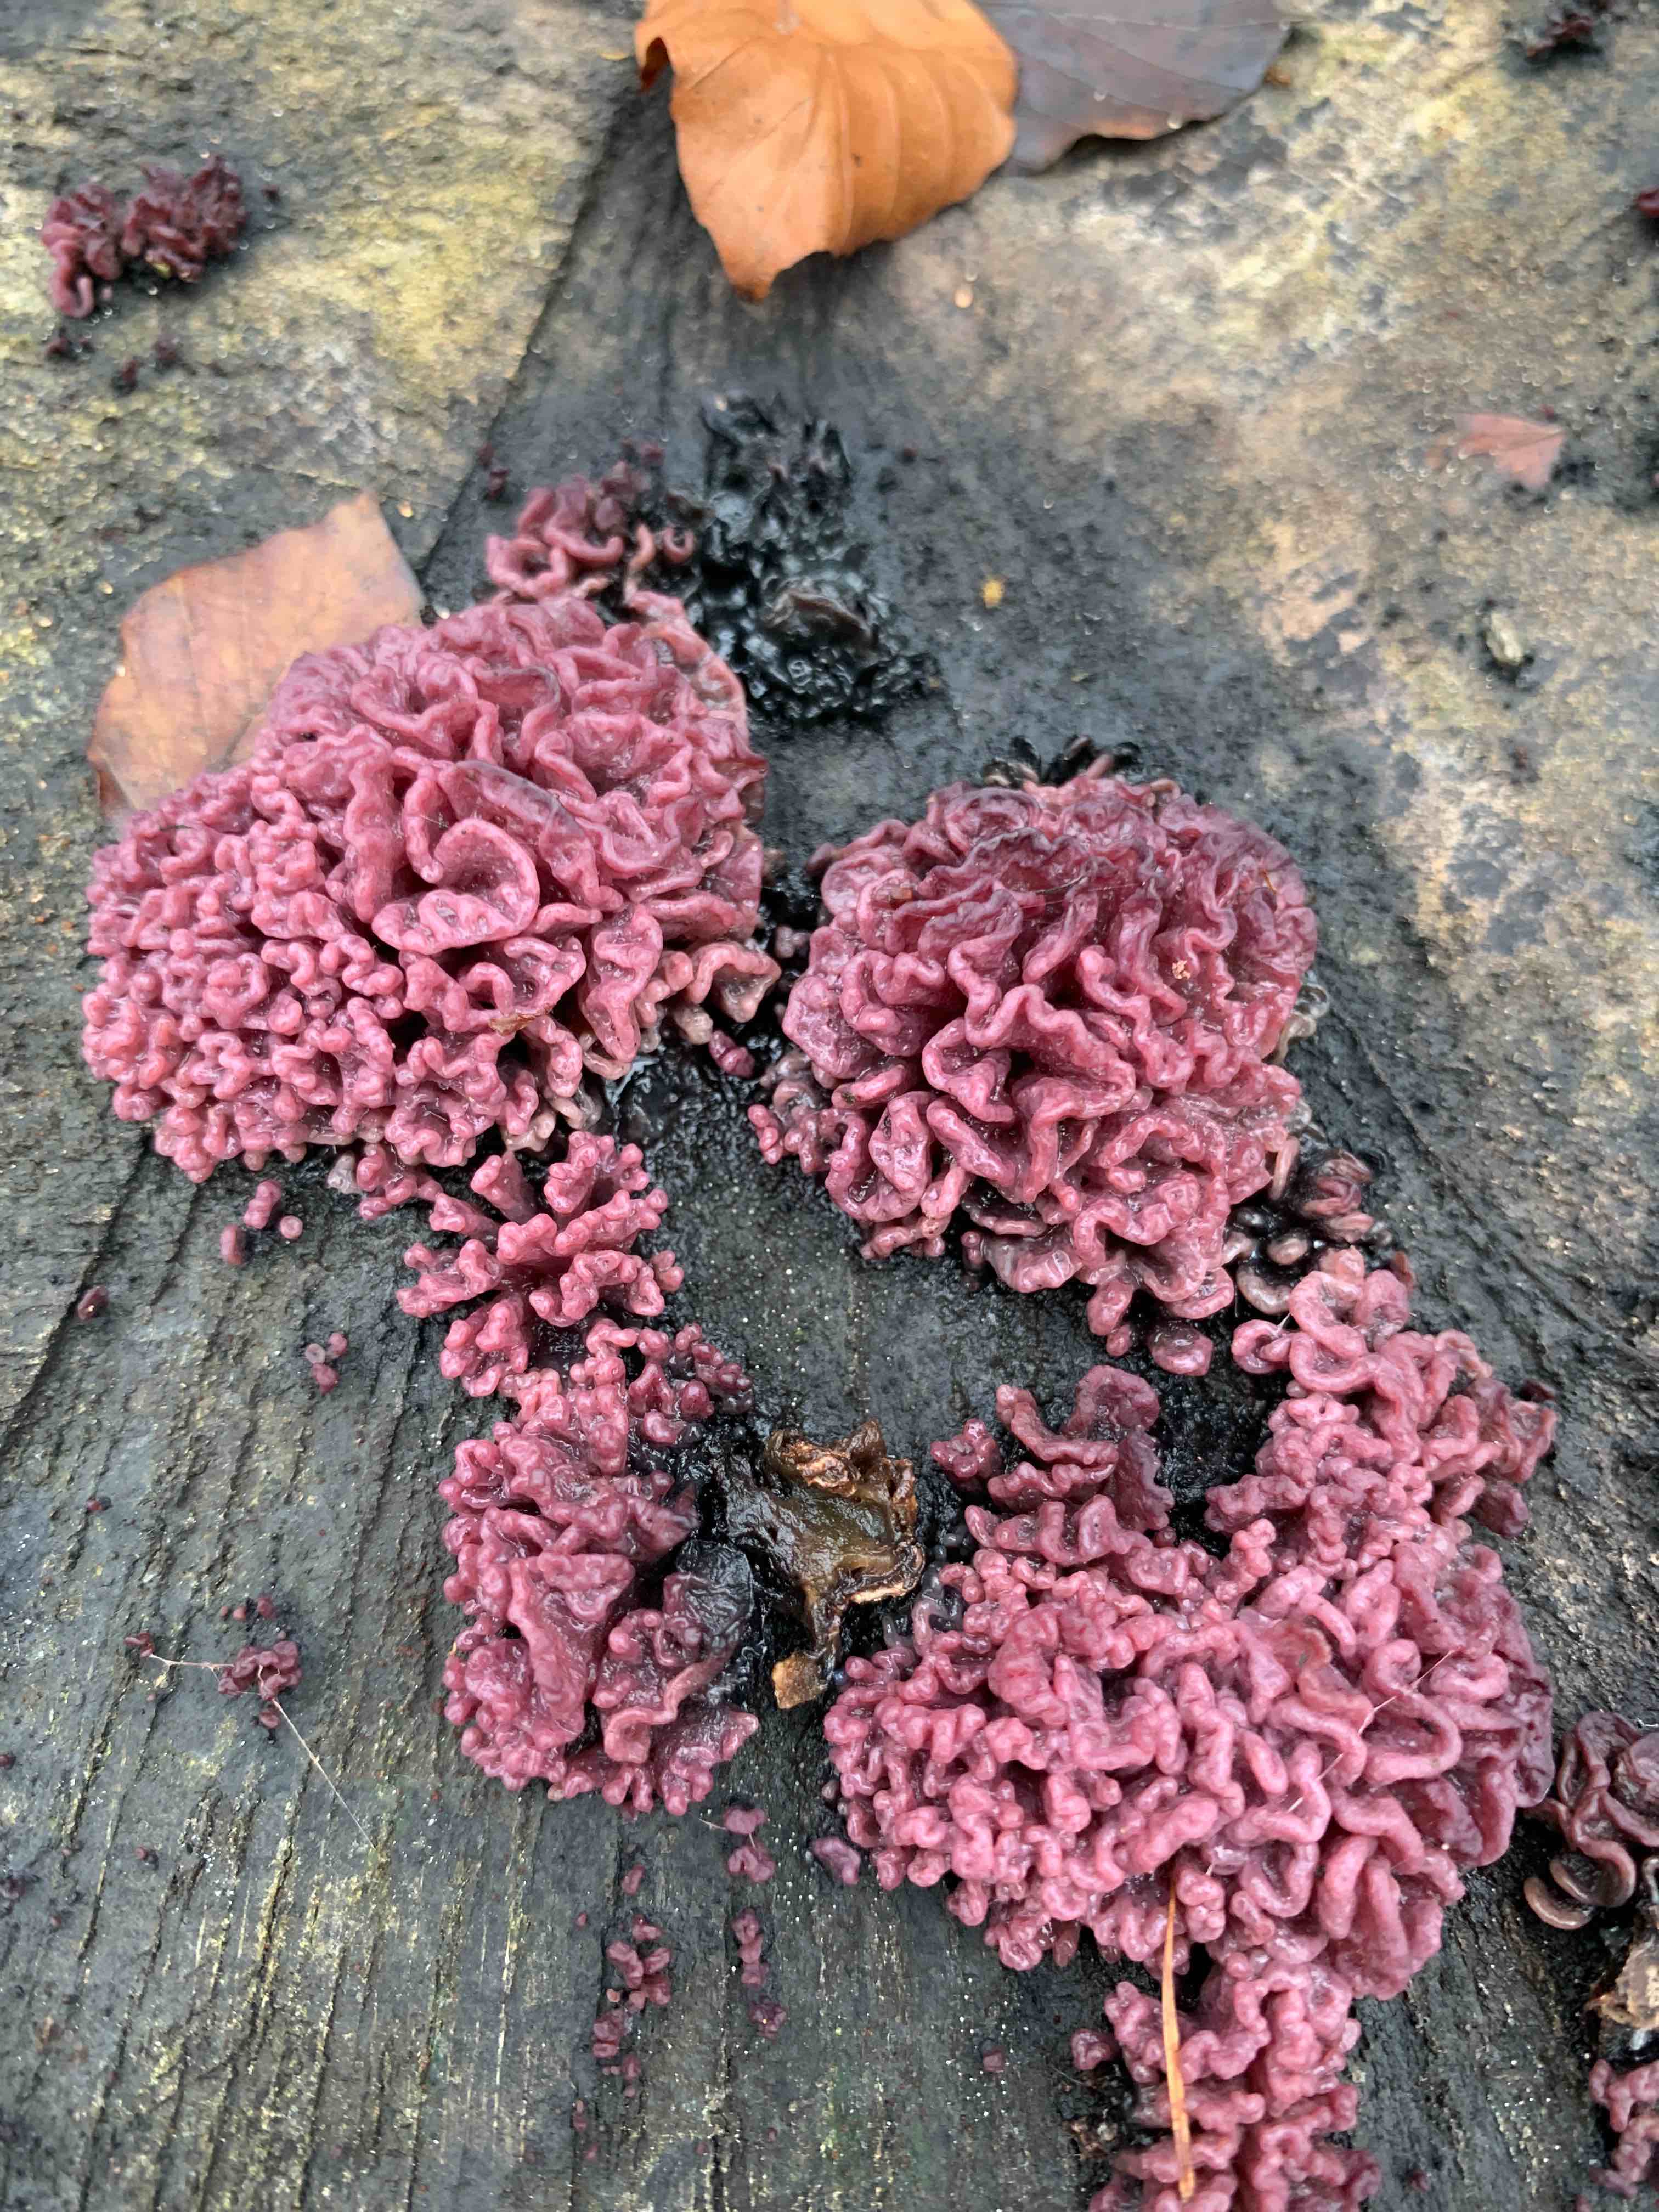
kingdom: Fungi
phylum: Ascomycota
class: Leotiomycetes
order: Helotiales
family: Gelatinodiscaceae
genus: Ascocoryne
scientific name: Ascocoryne sarcoides
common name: rødlilla sejskive
